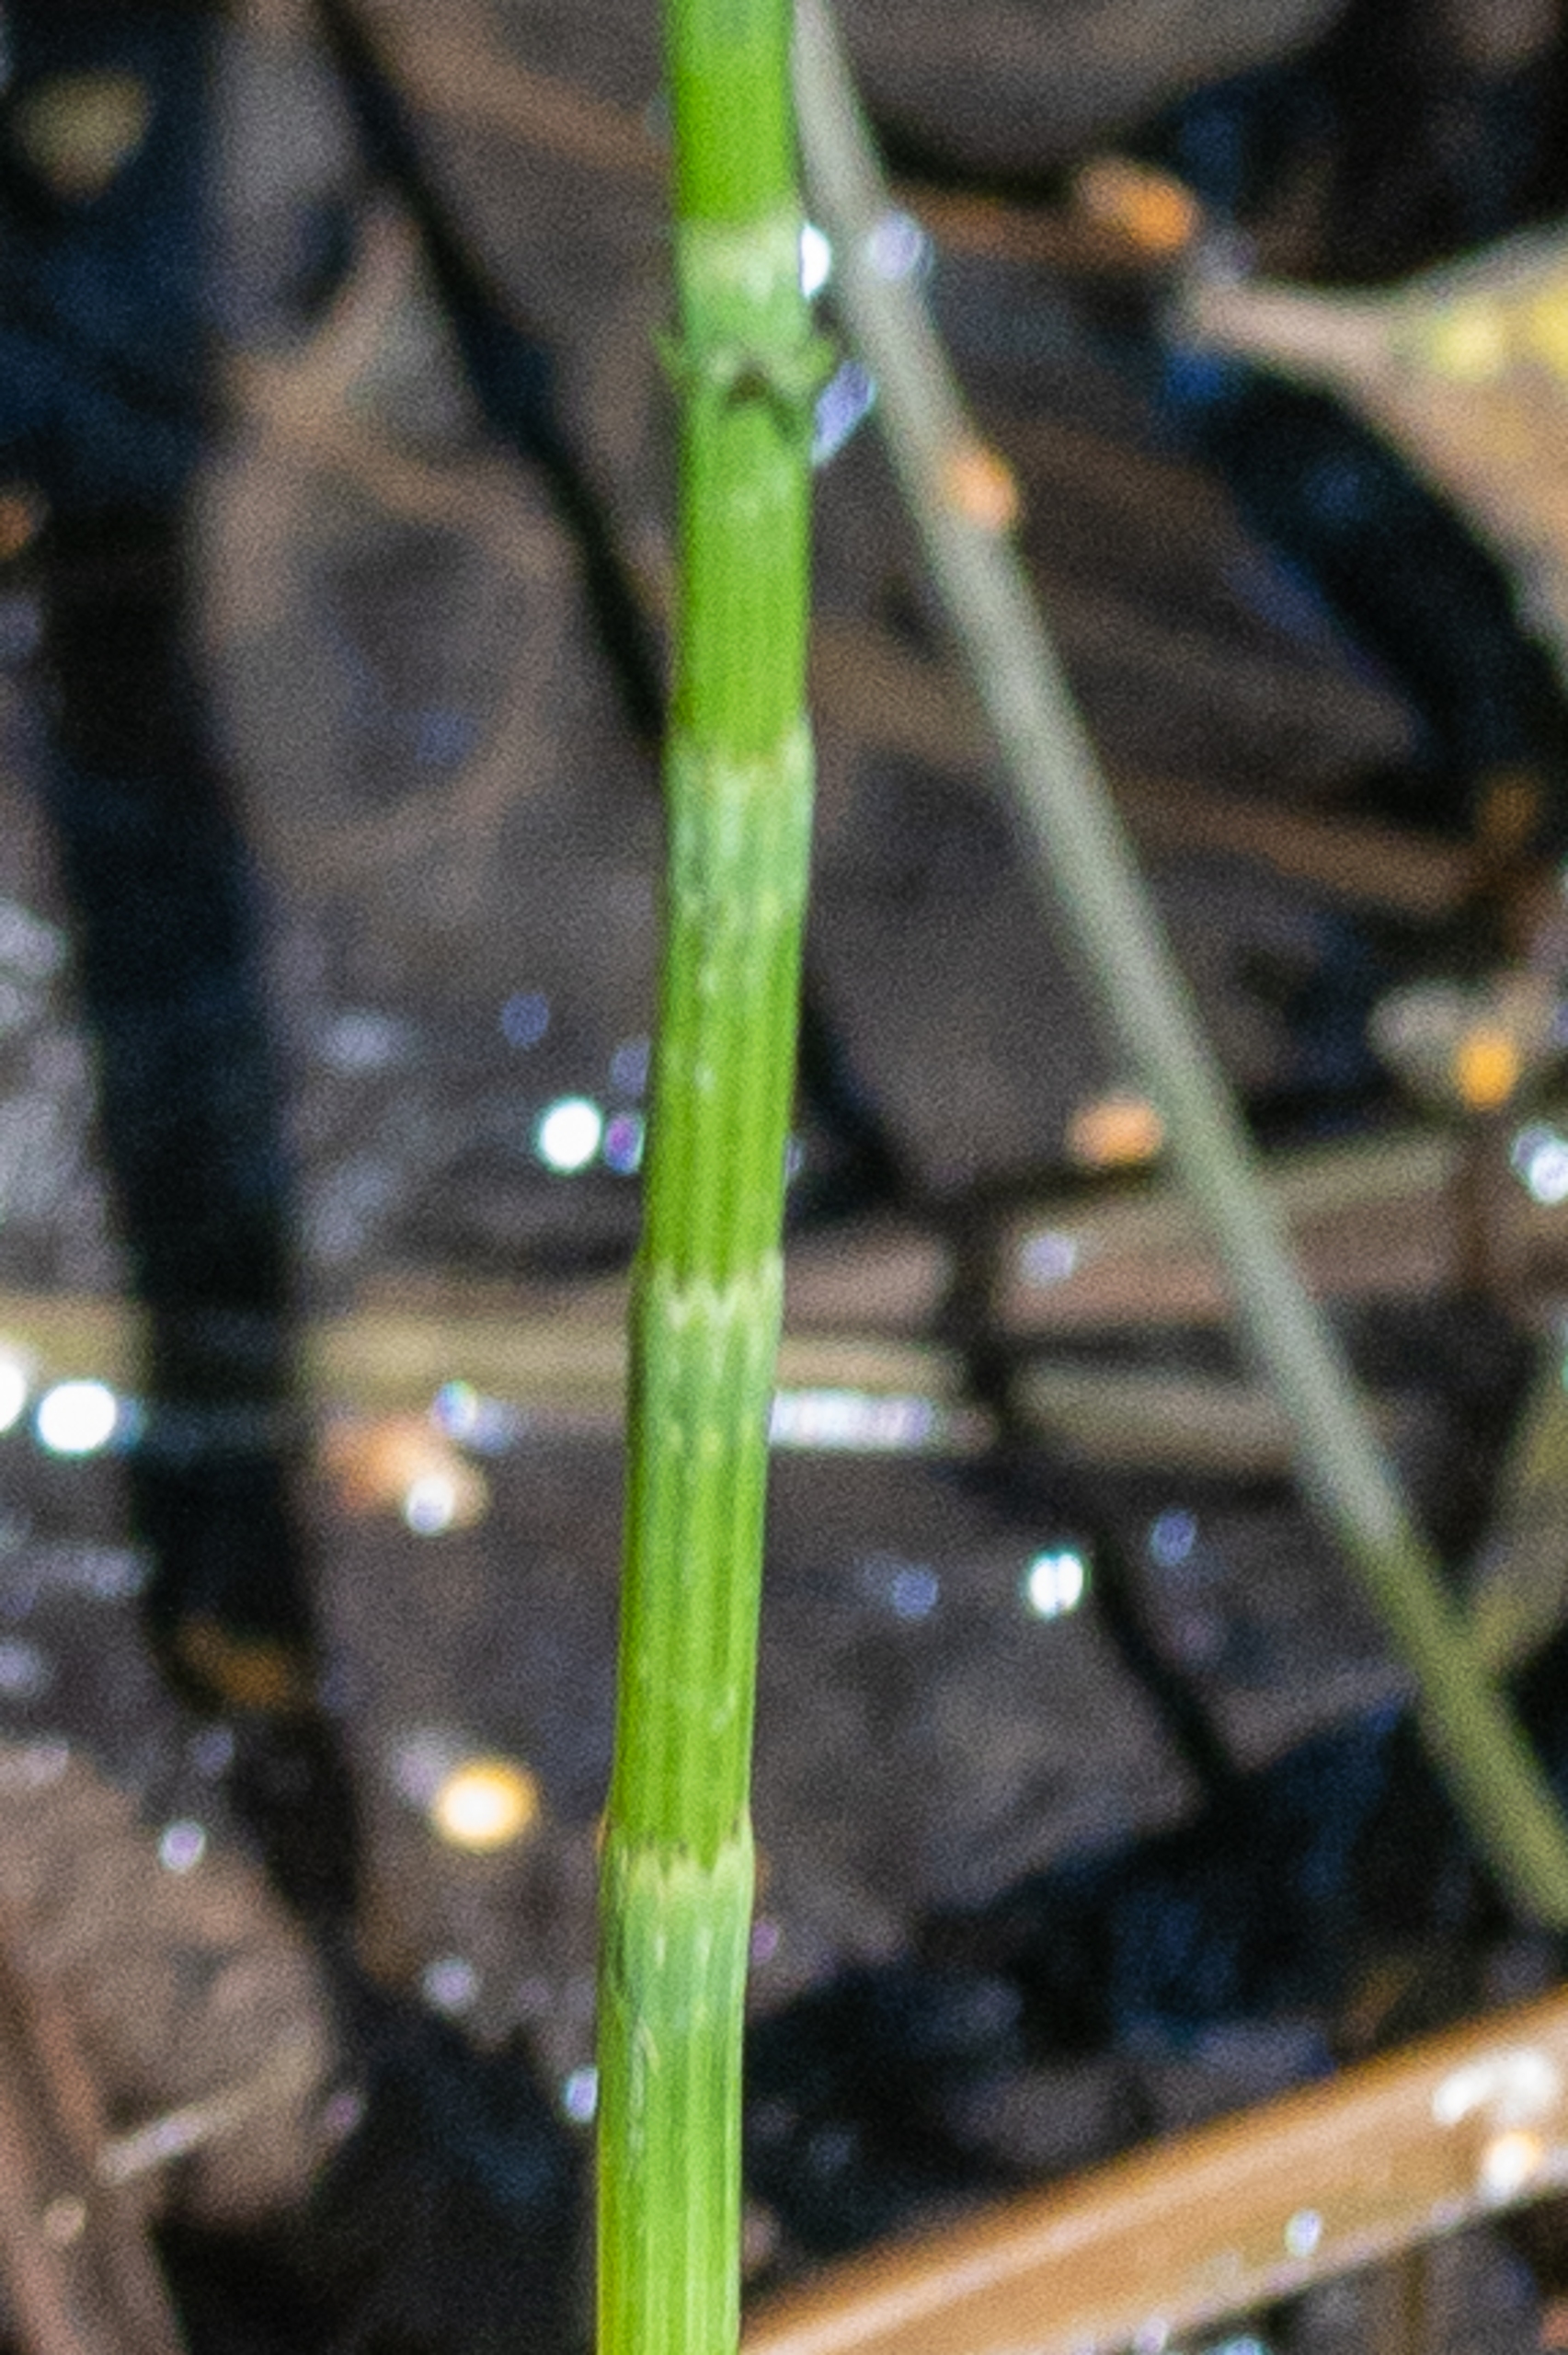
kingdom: Plantae
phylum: Tracheophyta
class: Polypodiopsida
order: Equisetales
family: Equisetaceae
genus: Equisetum
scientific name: Equisetum fluviatile
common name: Dynd-padderok
